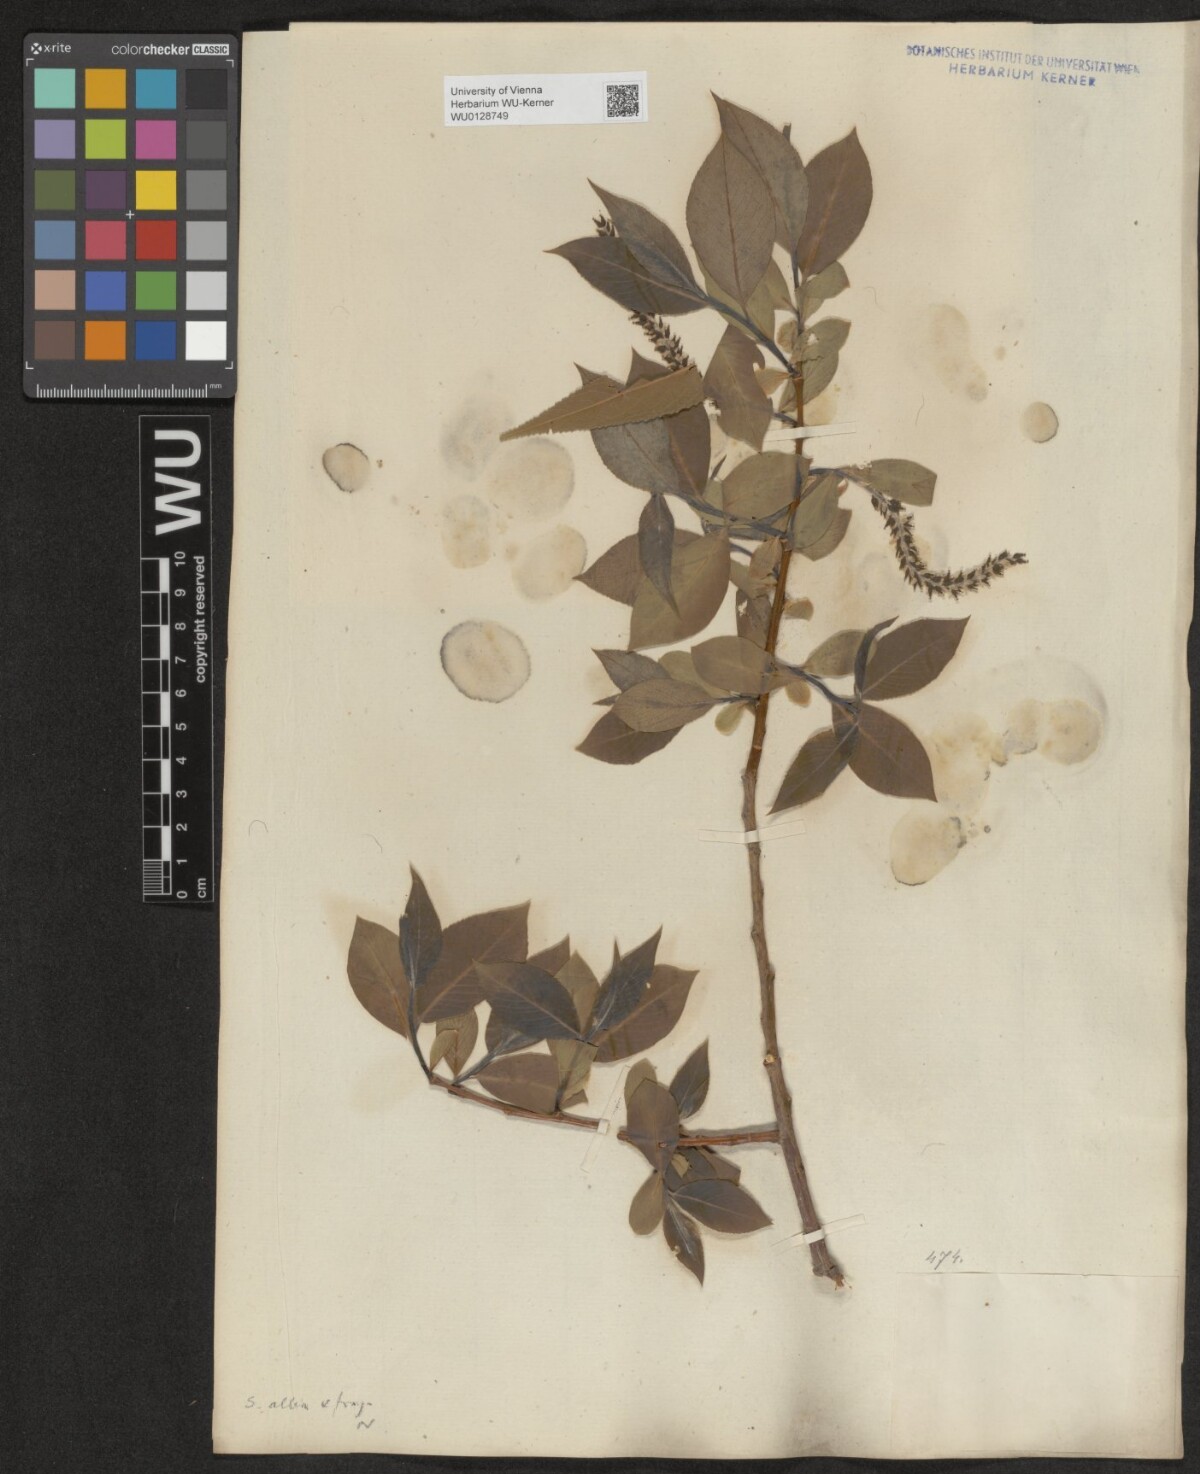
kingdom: Plantae
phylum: Tracheophyta
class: Magnoliopsida
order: Malpighiales
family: Salicaceae
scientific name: Salicaceae
